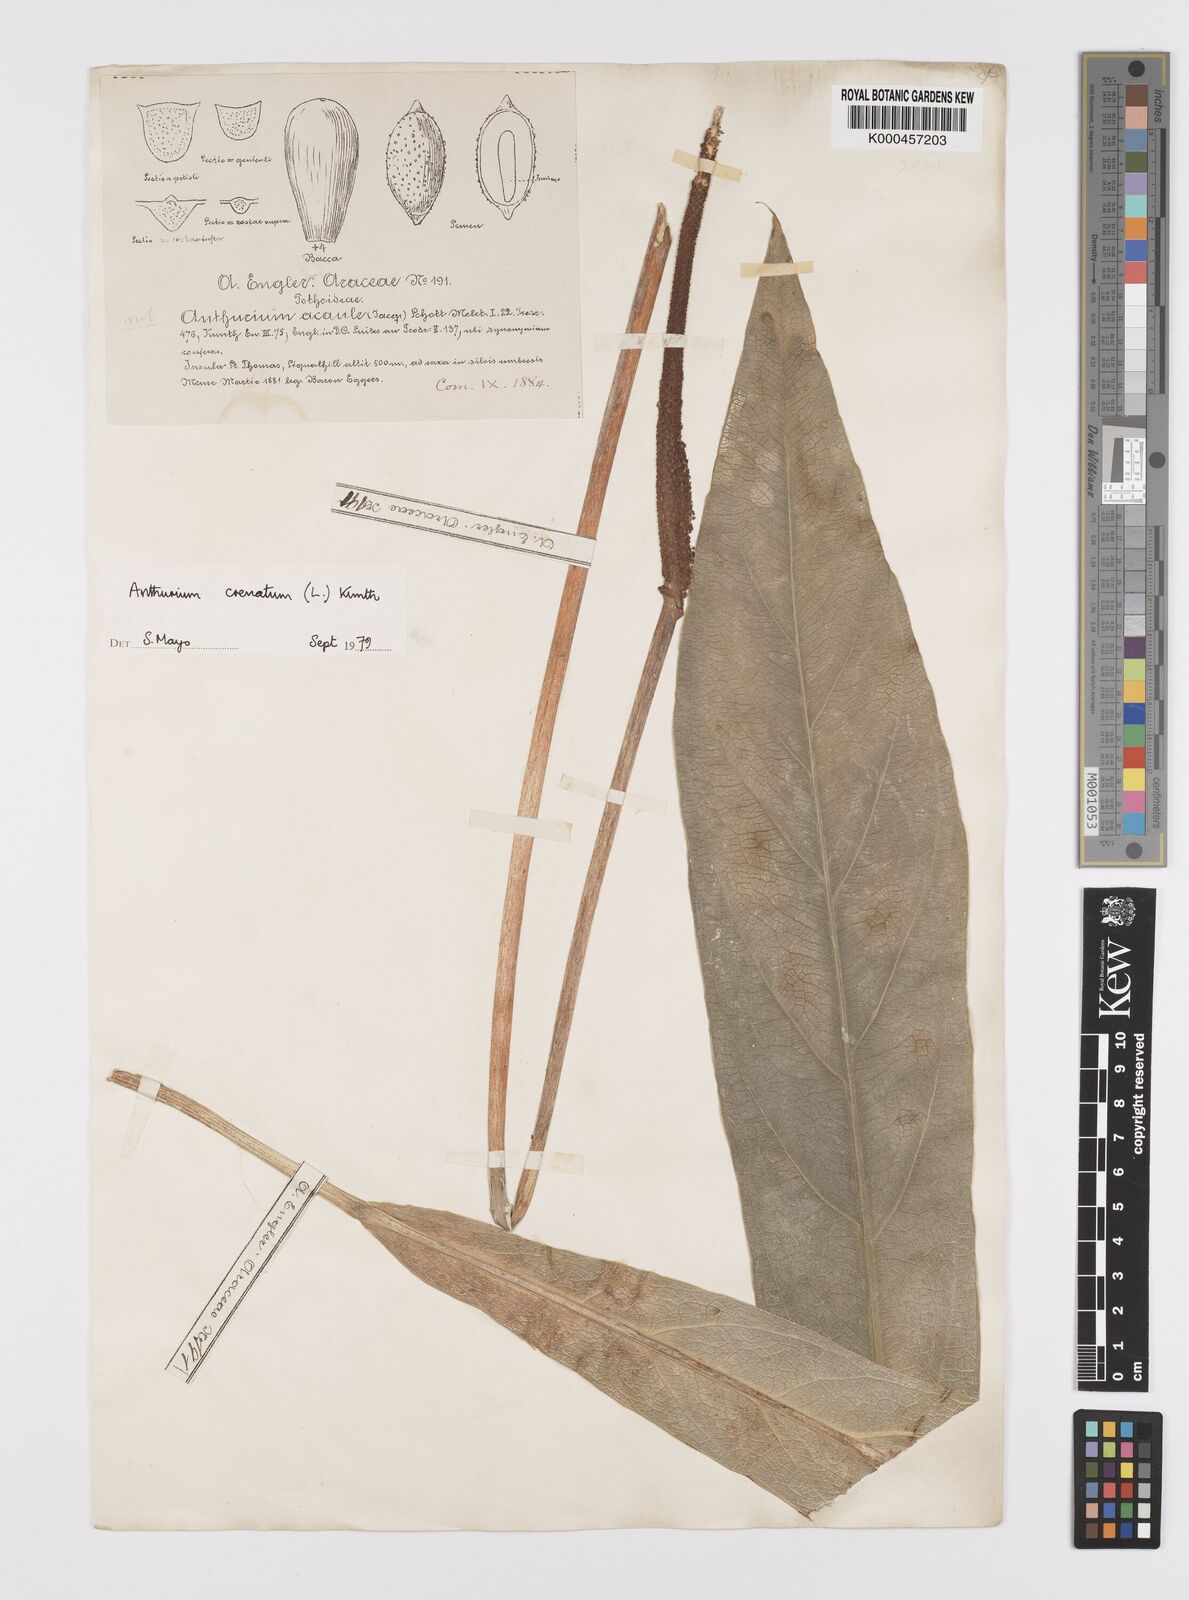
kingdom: Plantae
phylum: Tracheophyta
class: Liliopsida
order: Alismatales
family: Araceae
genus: Anthurium
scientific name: Anthurium crenatum
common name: Scalloped laceleaf
